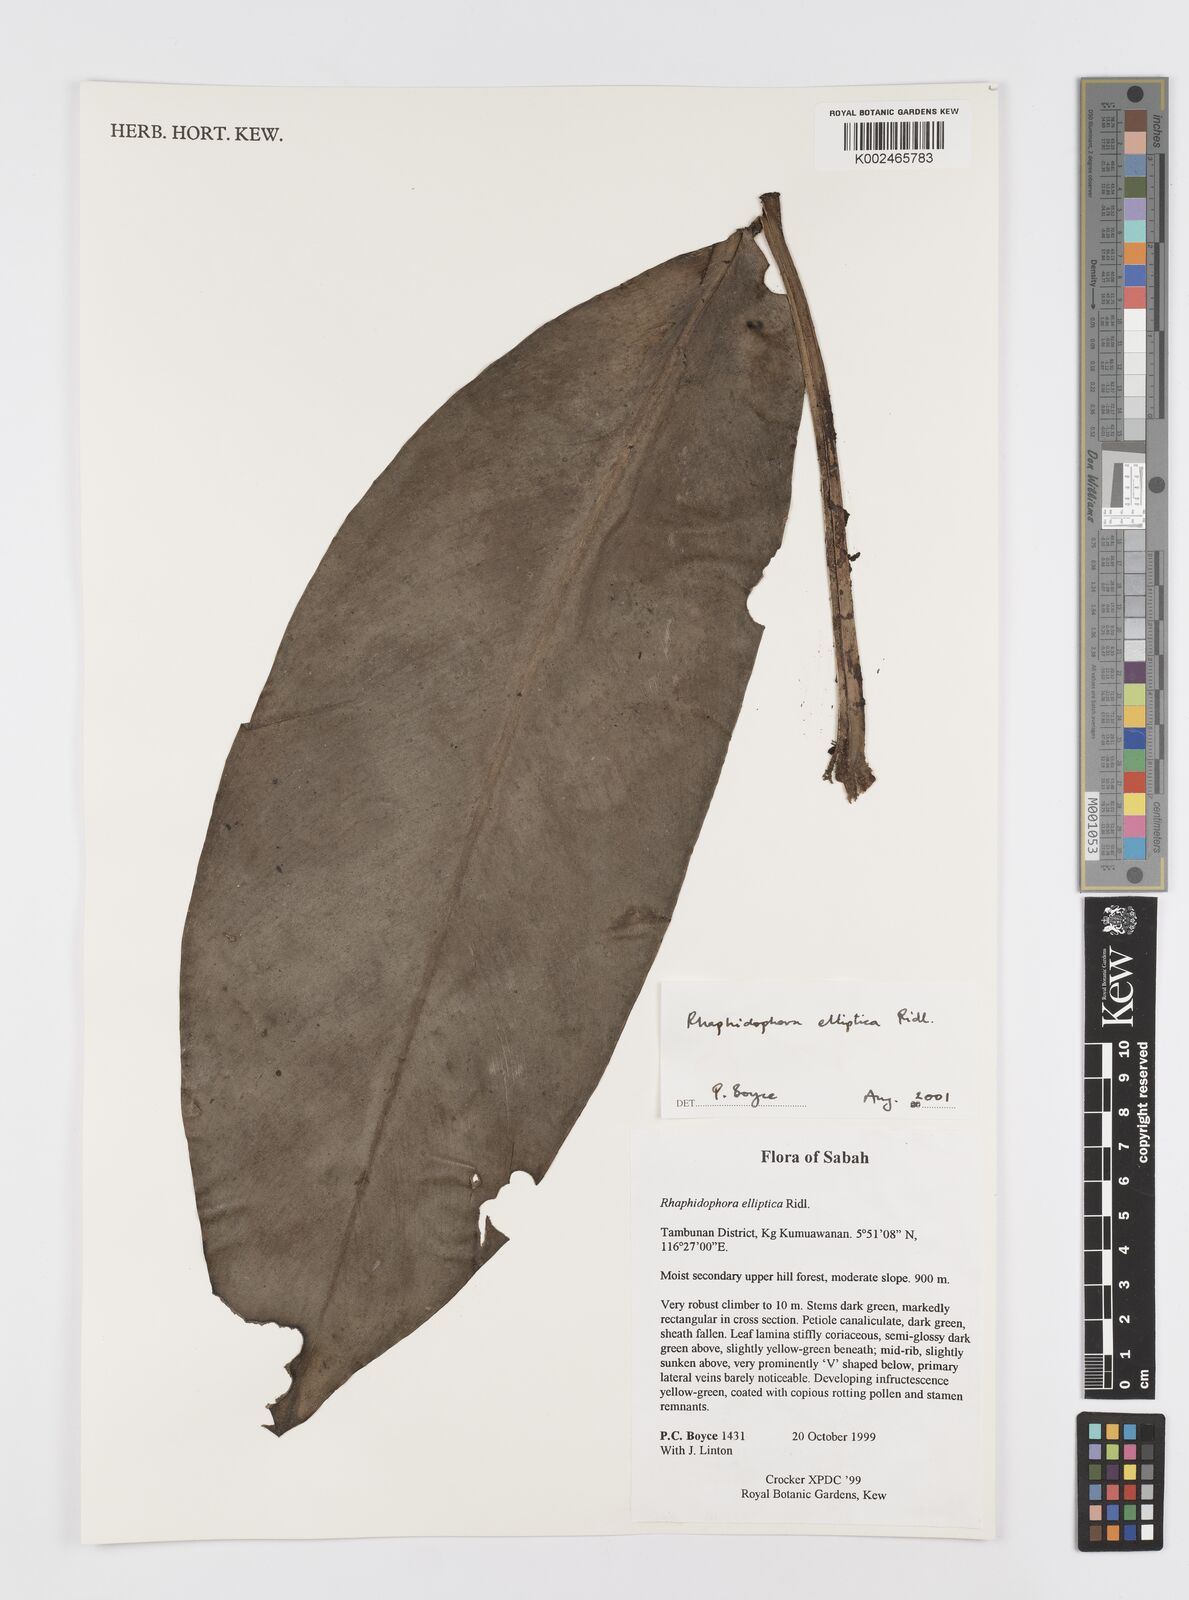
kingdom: Plantae
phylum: Tracheophyta
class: Liliopsida
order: Alismatales
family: Araceae
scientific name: Araceae
